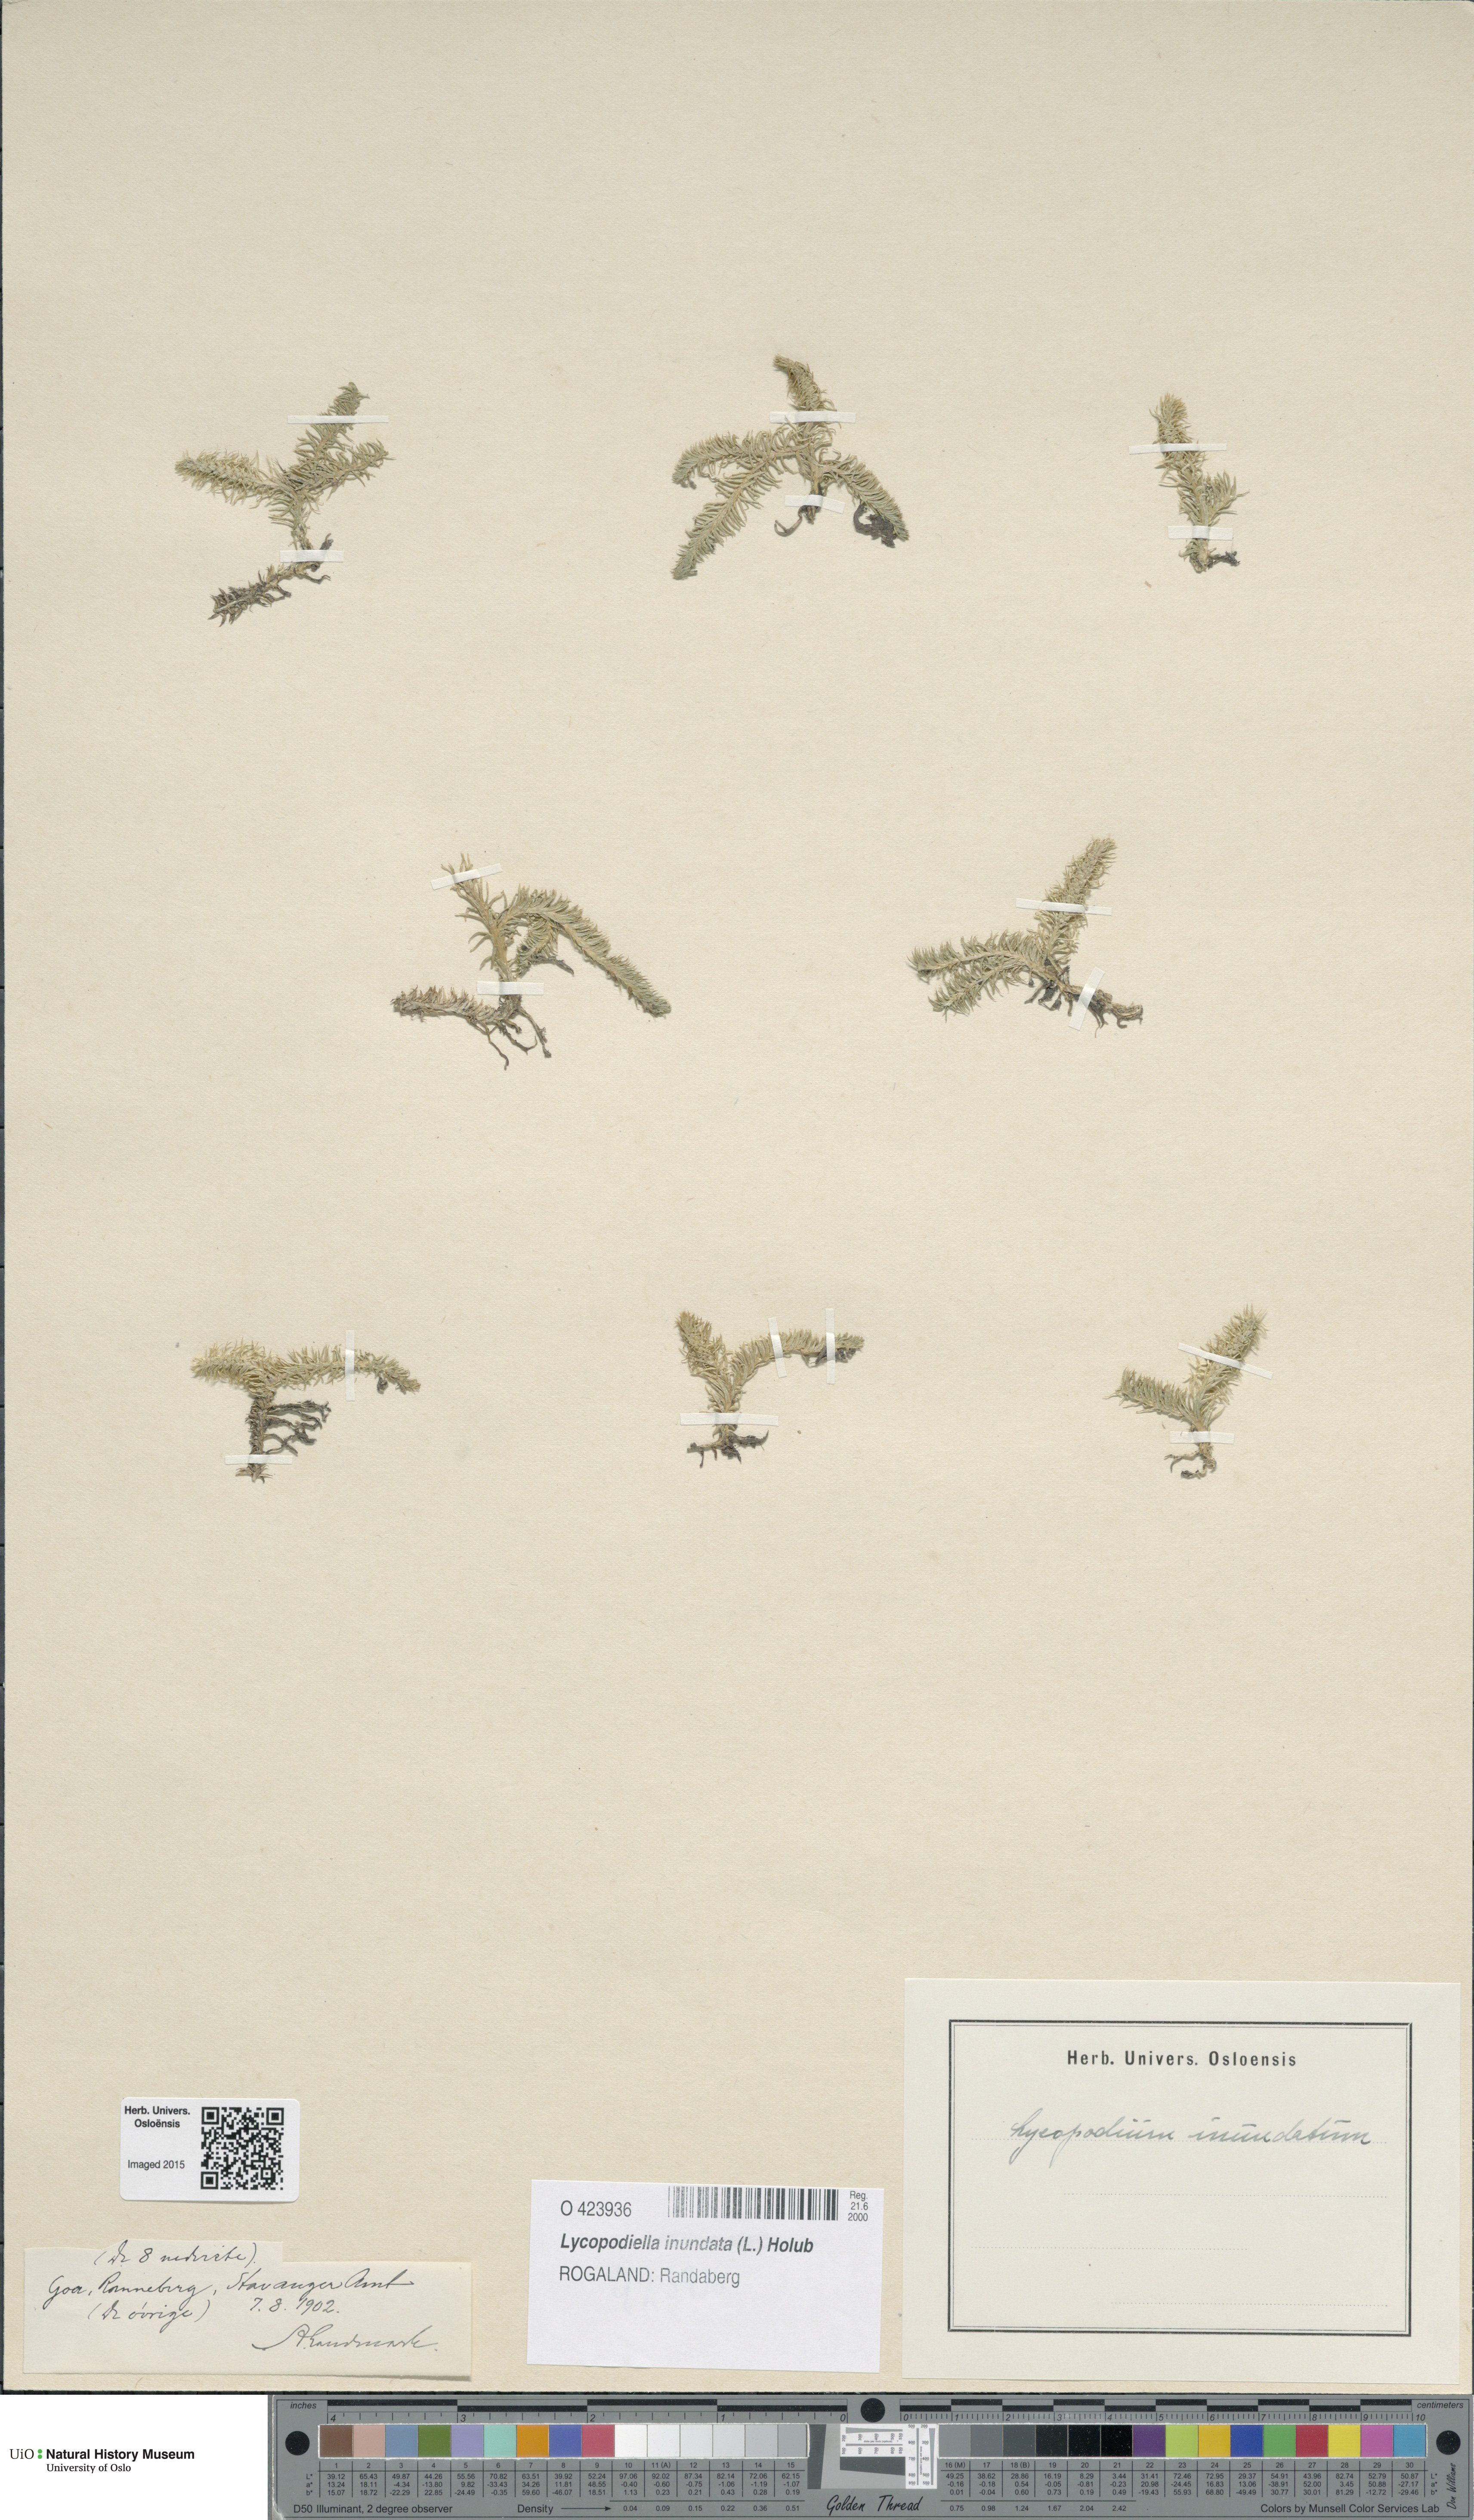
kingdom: Plantae
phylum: Tracheophyta
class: Lycopodiopsida
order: Lycopodiales
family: Lycopodiaceae
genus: Lycopodiella
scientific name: Lycopodiella inundata
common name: Marsh clubmoss
